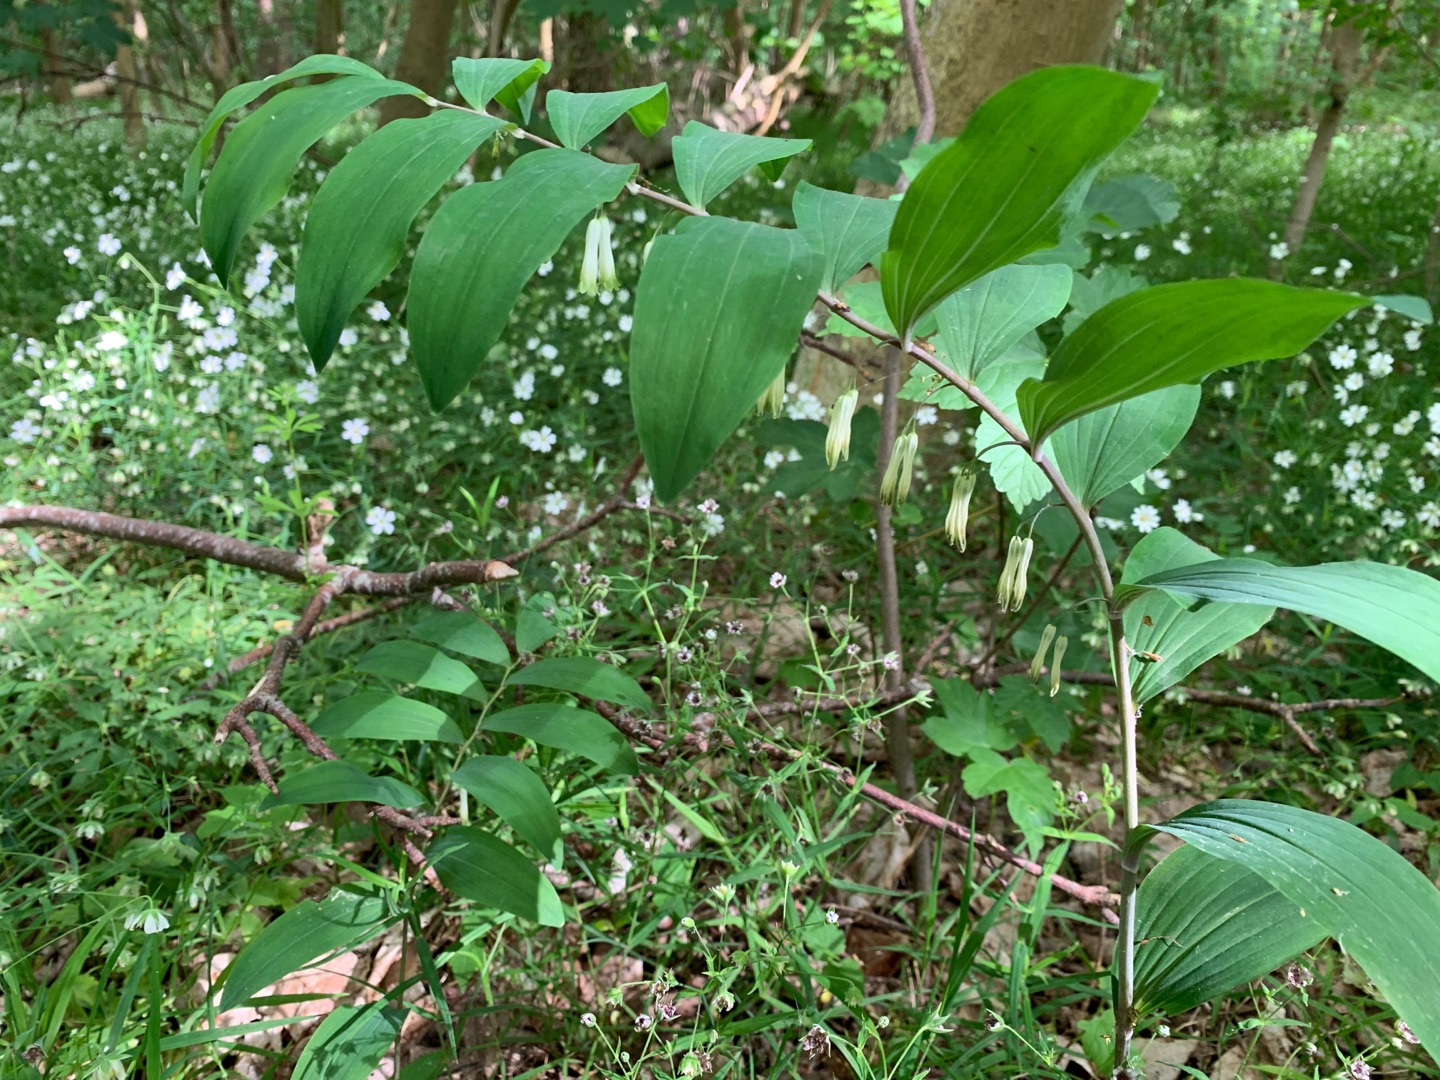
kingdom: Plantae
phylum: Tracheophyta
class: Liliopsida
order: Asparagales
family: Asparagaceae
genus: Polygonatum
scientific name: Polygonatum multiflorum
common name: Stor konval
